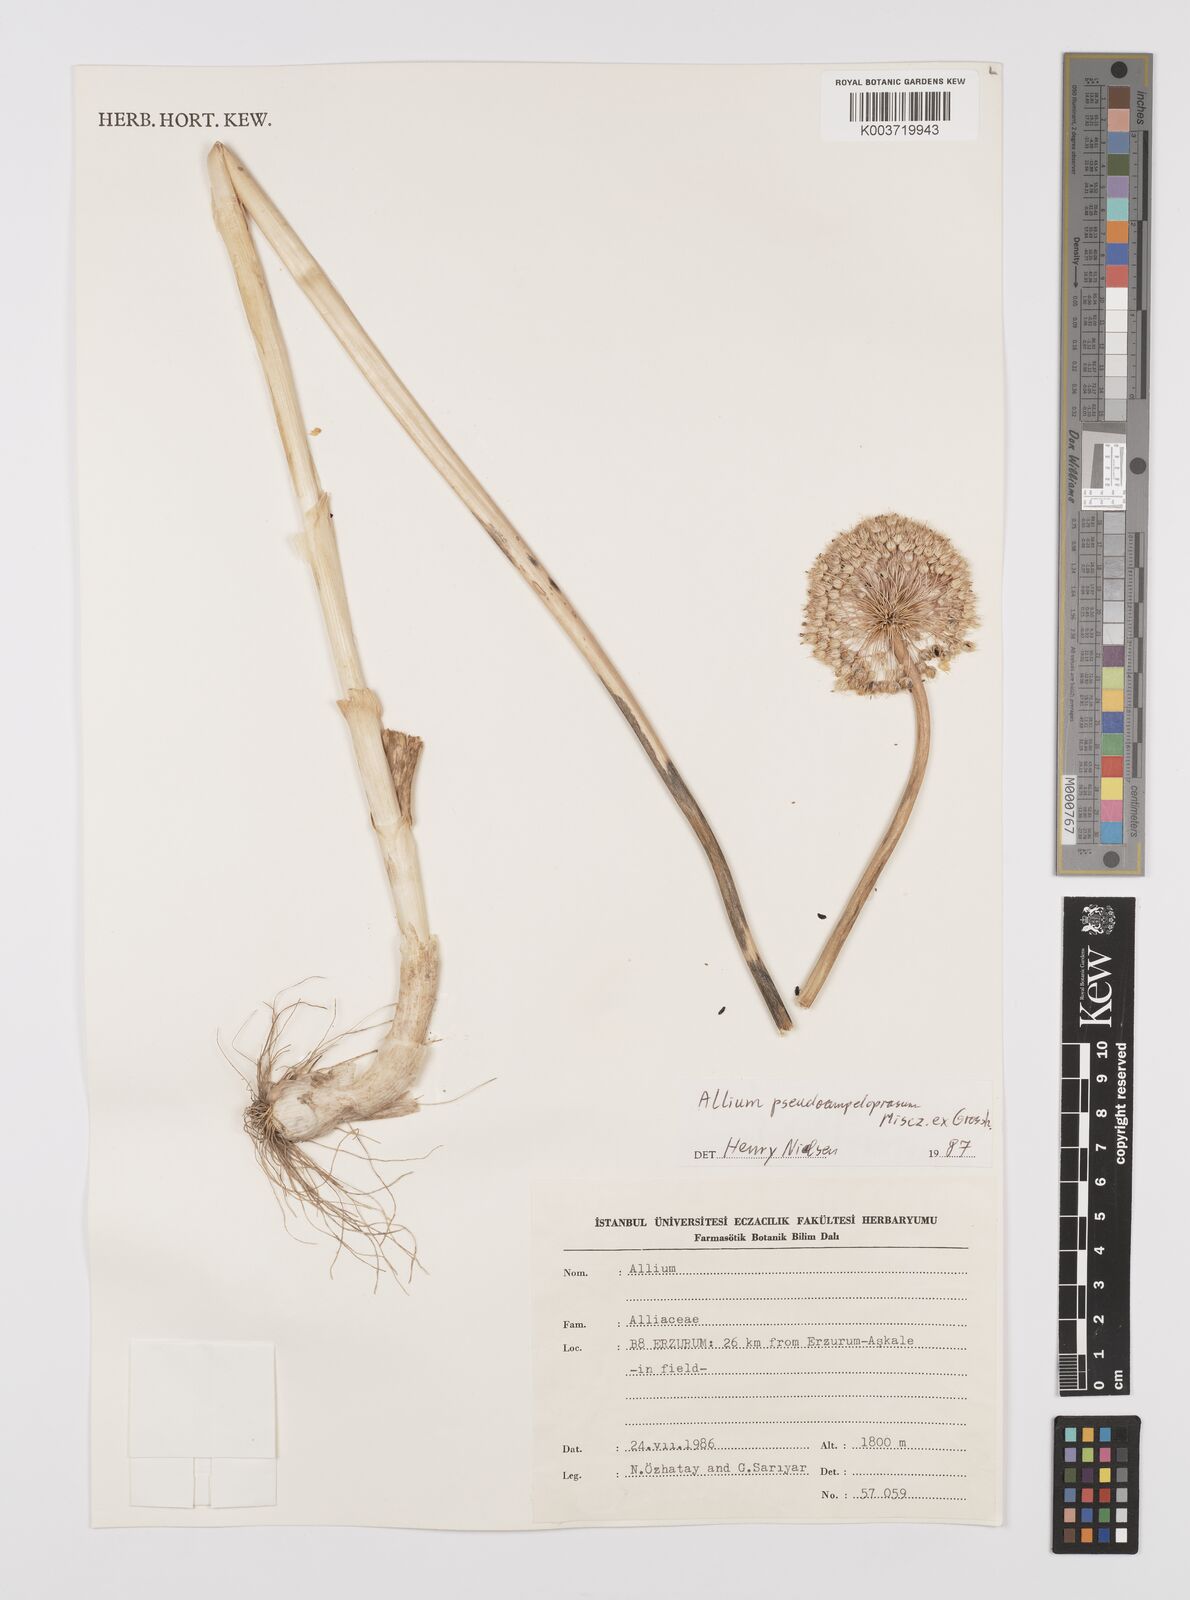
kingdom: Plantae
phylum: Tracheophyta
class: Liliopsida
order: Asparagales
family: Amaryllidaceae
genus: Allium
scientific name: Allium pseudoampeloprasum
